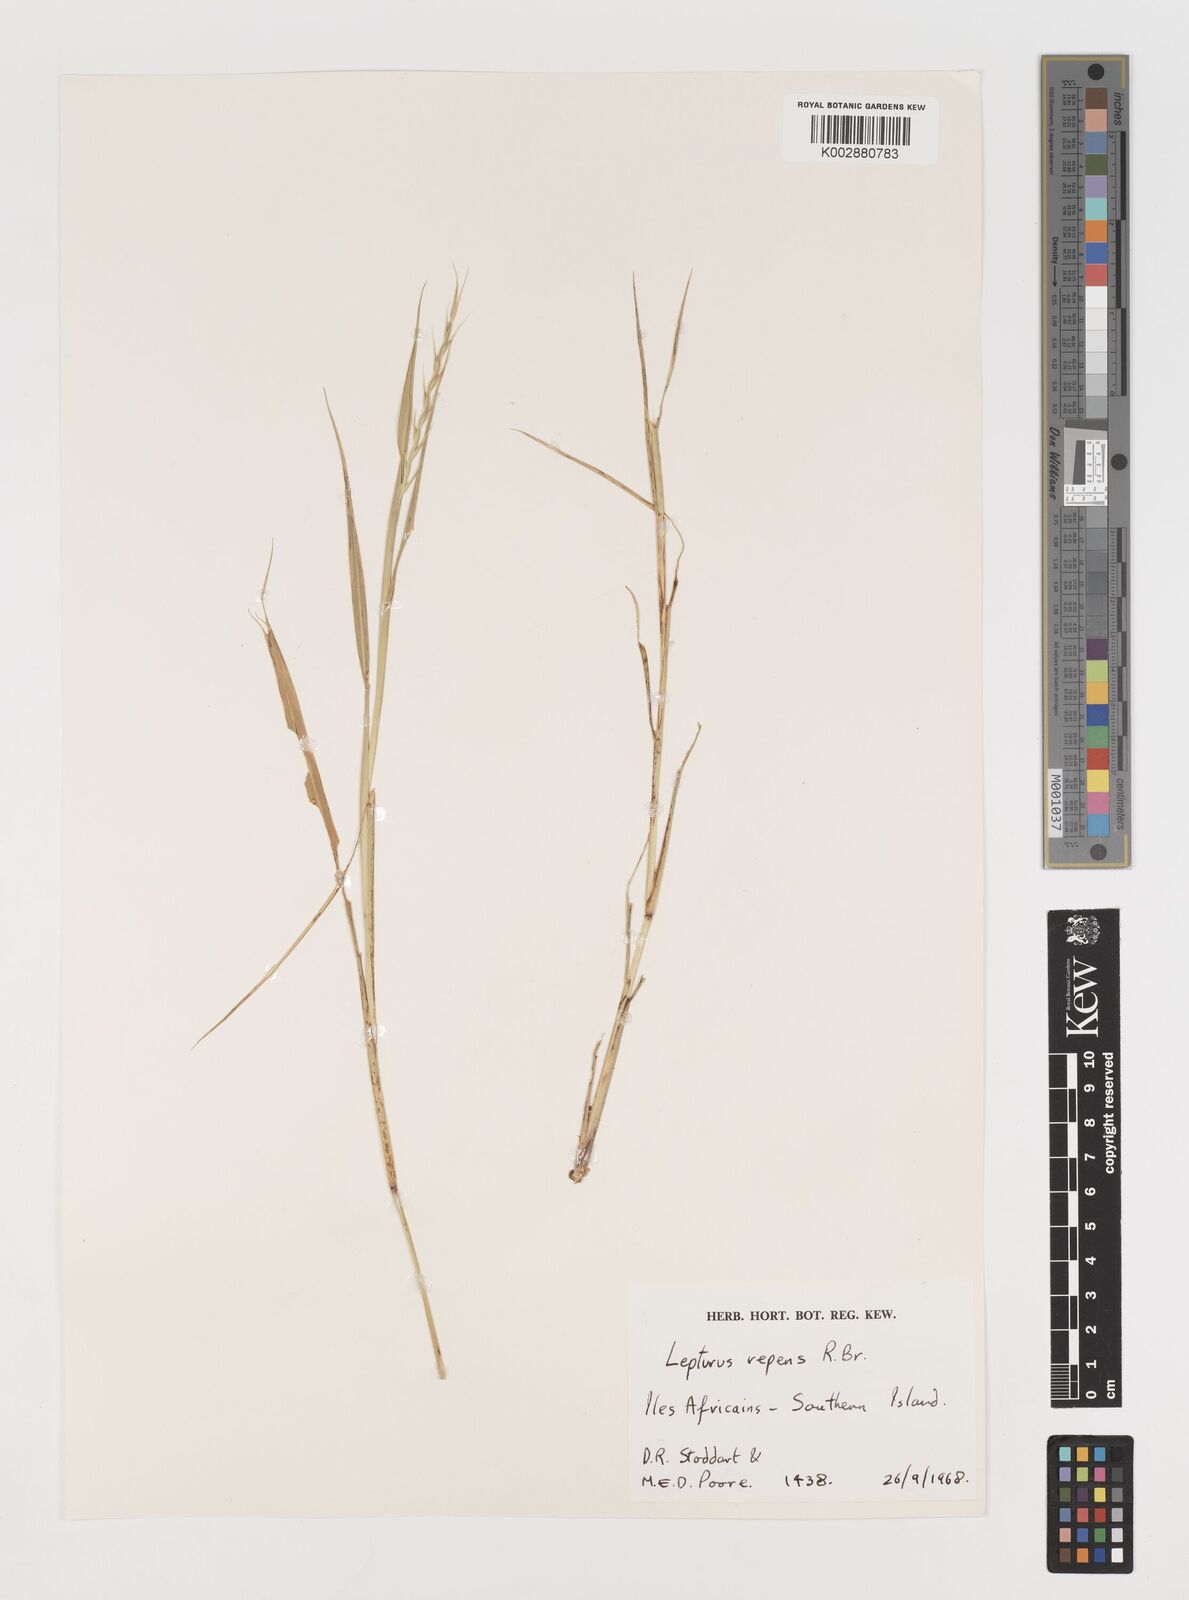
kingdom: Plantae
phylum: Tracheophyta
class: Liliopsida
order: Poales
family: Poaceae
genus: Lepturus
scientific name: Lepturus repens
